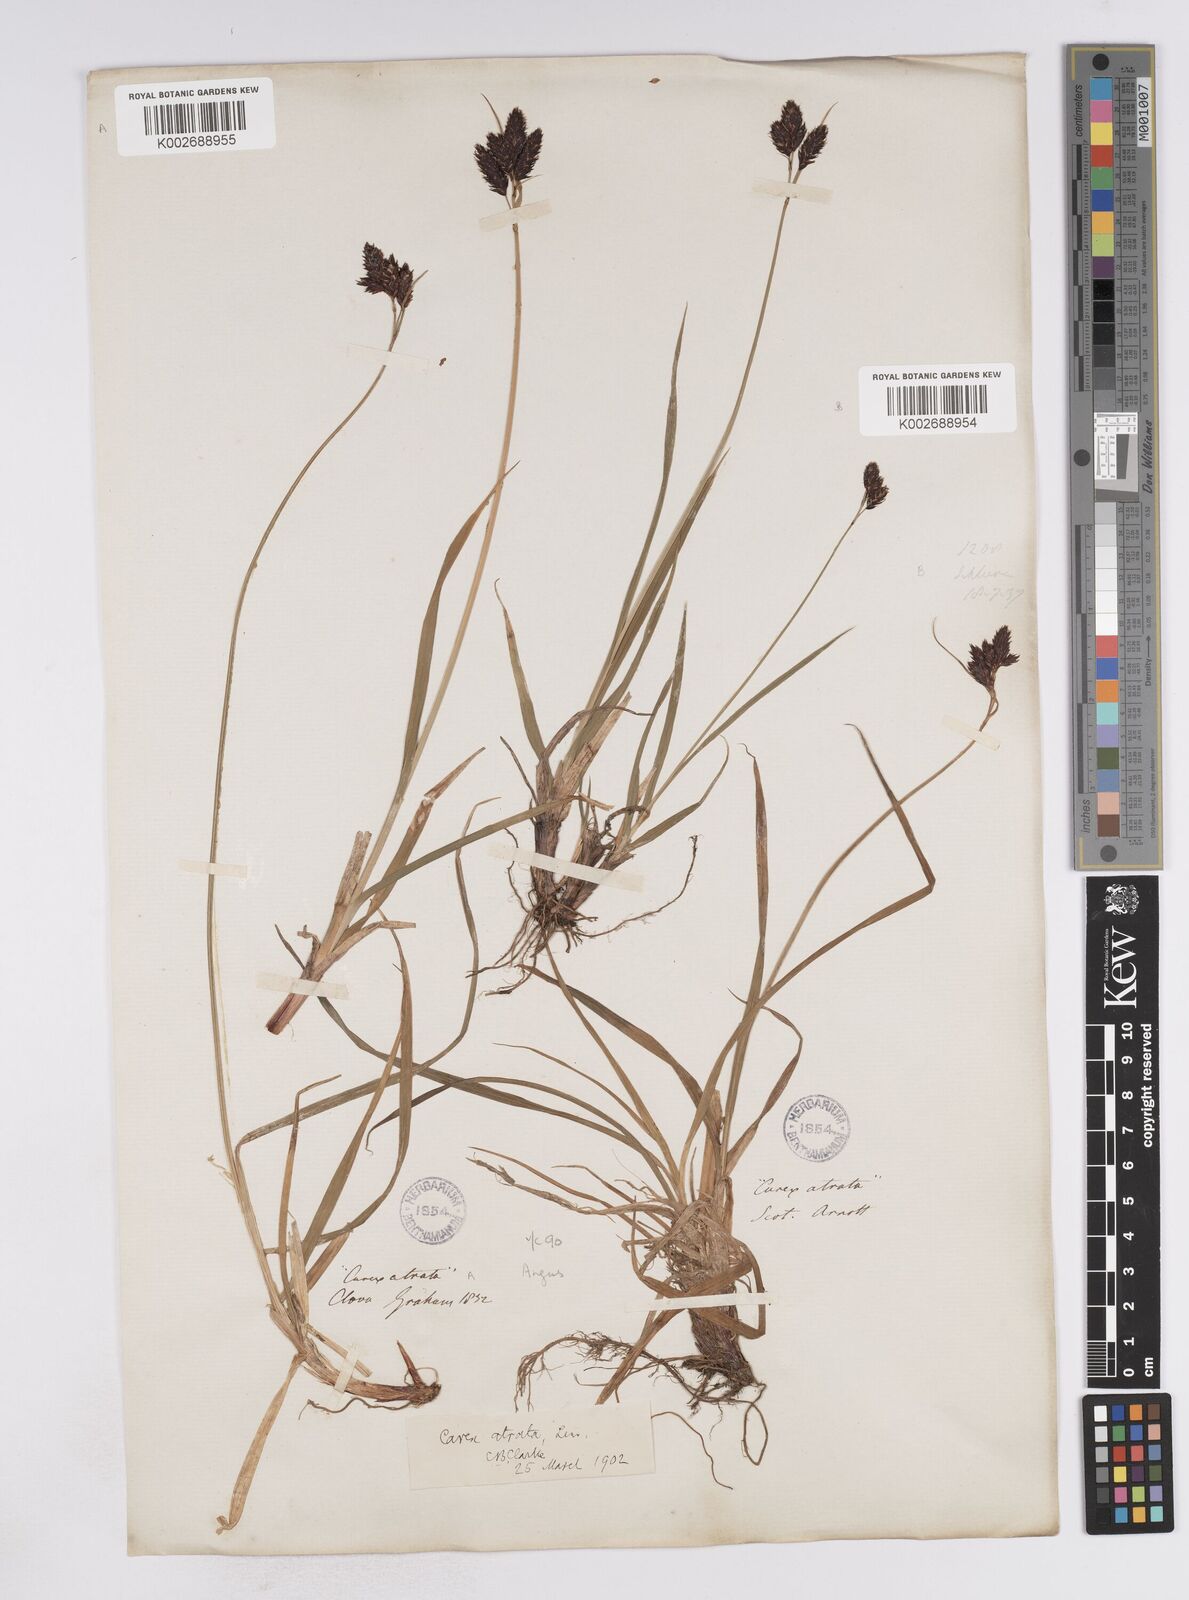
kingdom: Plantae
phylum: Tracheophyta
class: Liliopsida
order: Poales
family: Cyperaceae
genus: Carex
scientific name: Carex atrata
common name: Black alpine sedge
